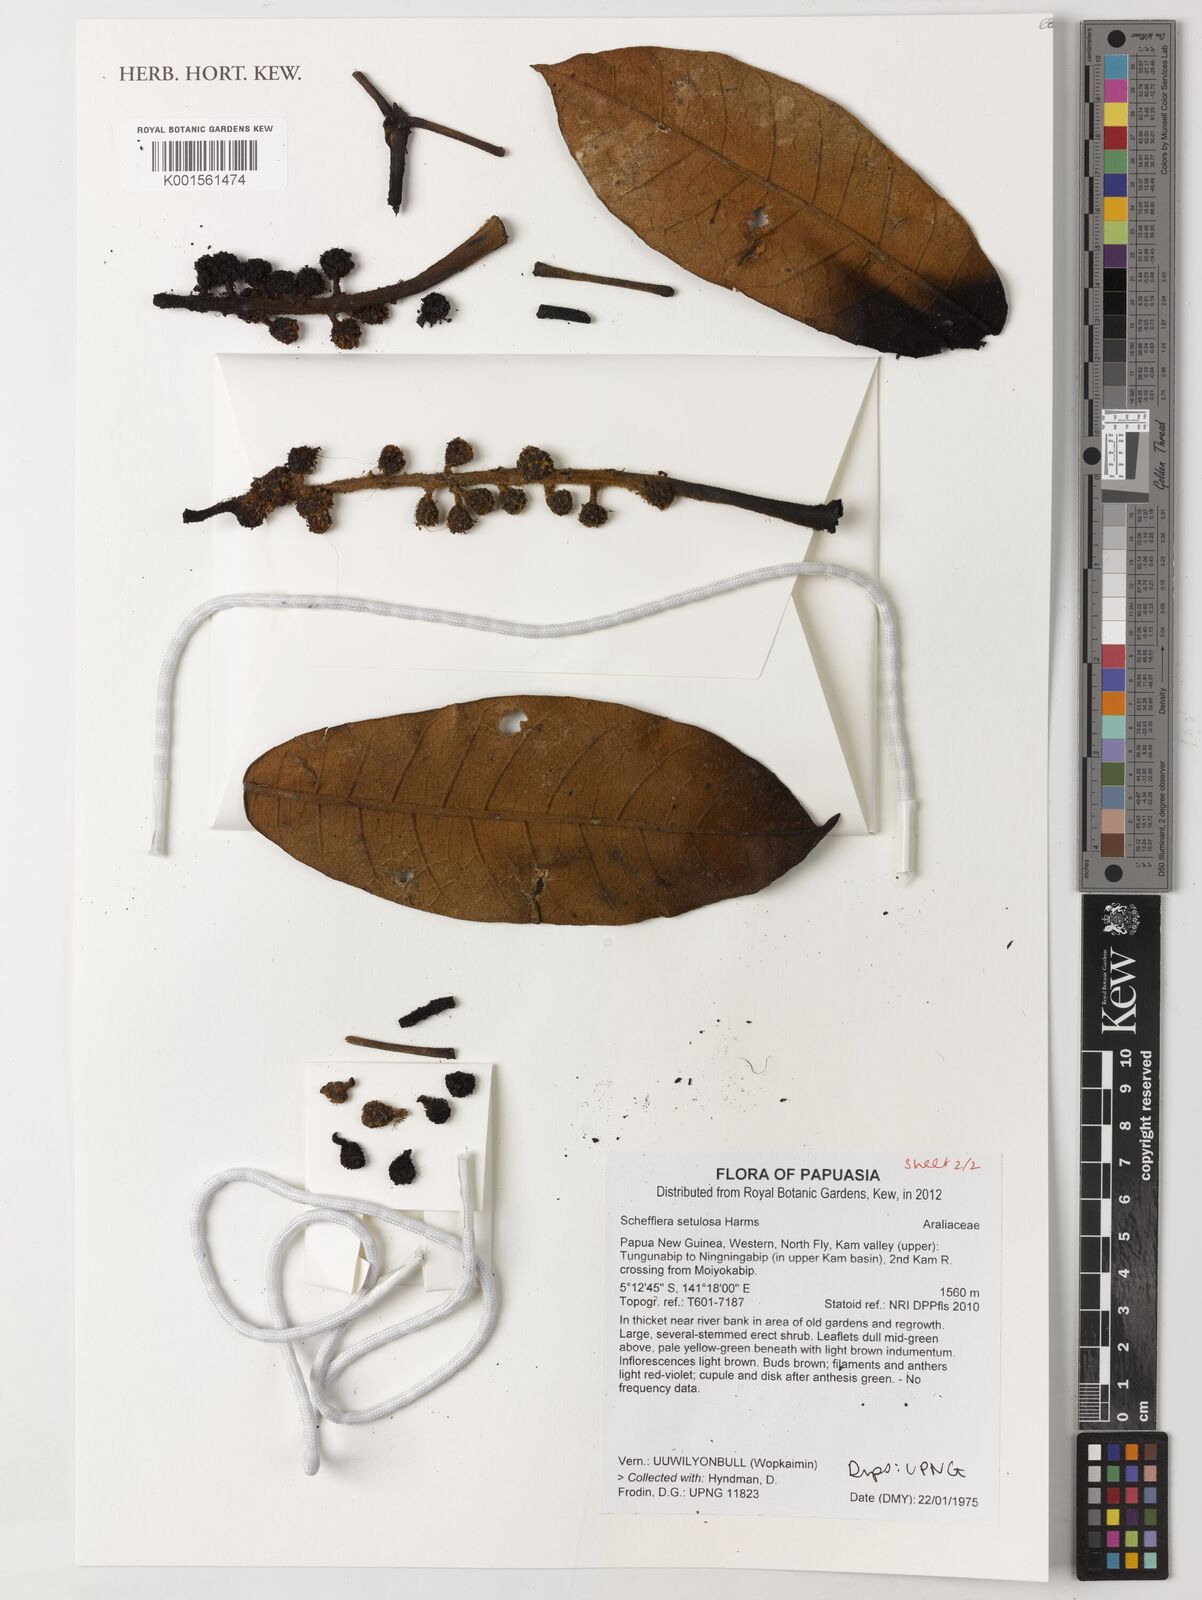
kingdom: Plantae
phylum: Tracheophyta
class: Magnoliopsida
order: Apiales
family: Araliaceae
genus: Heptapleurum
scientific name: Heptapleurum setulosum
